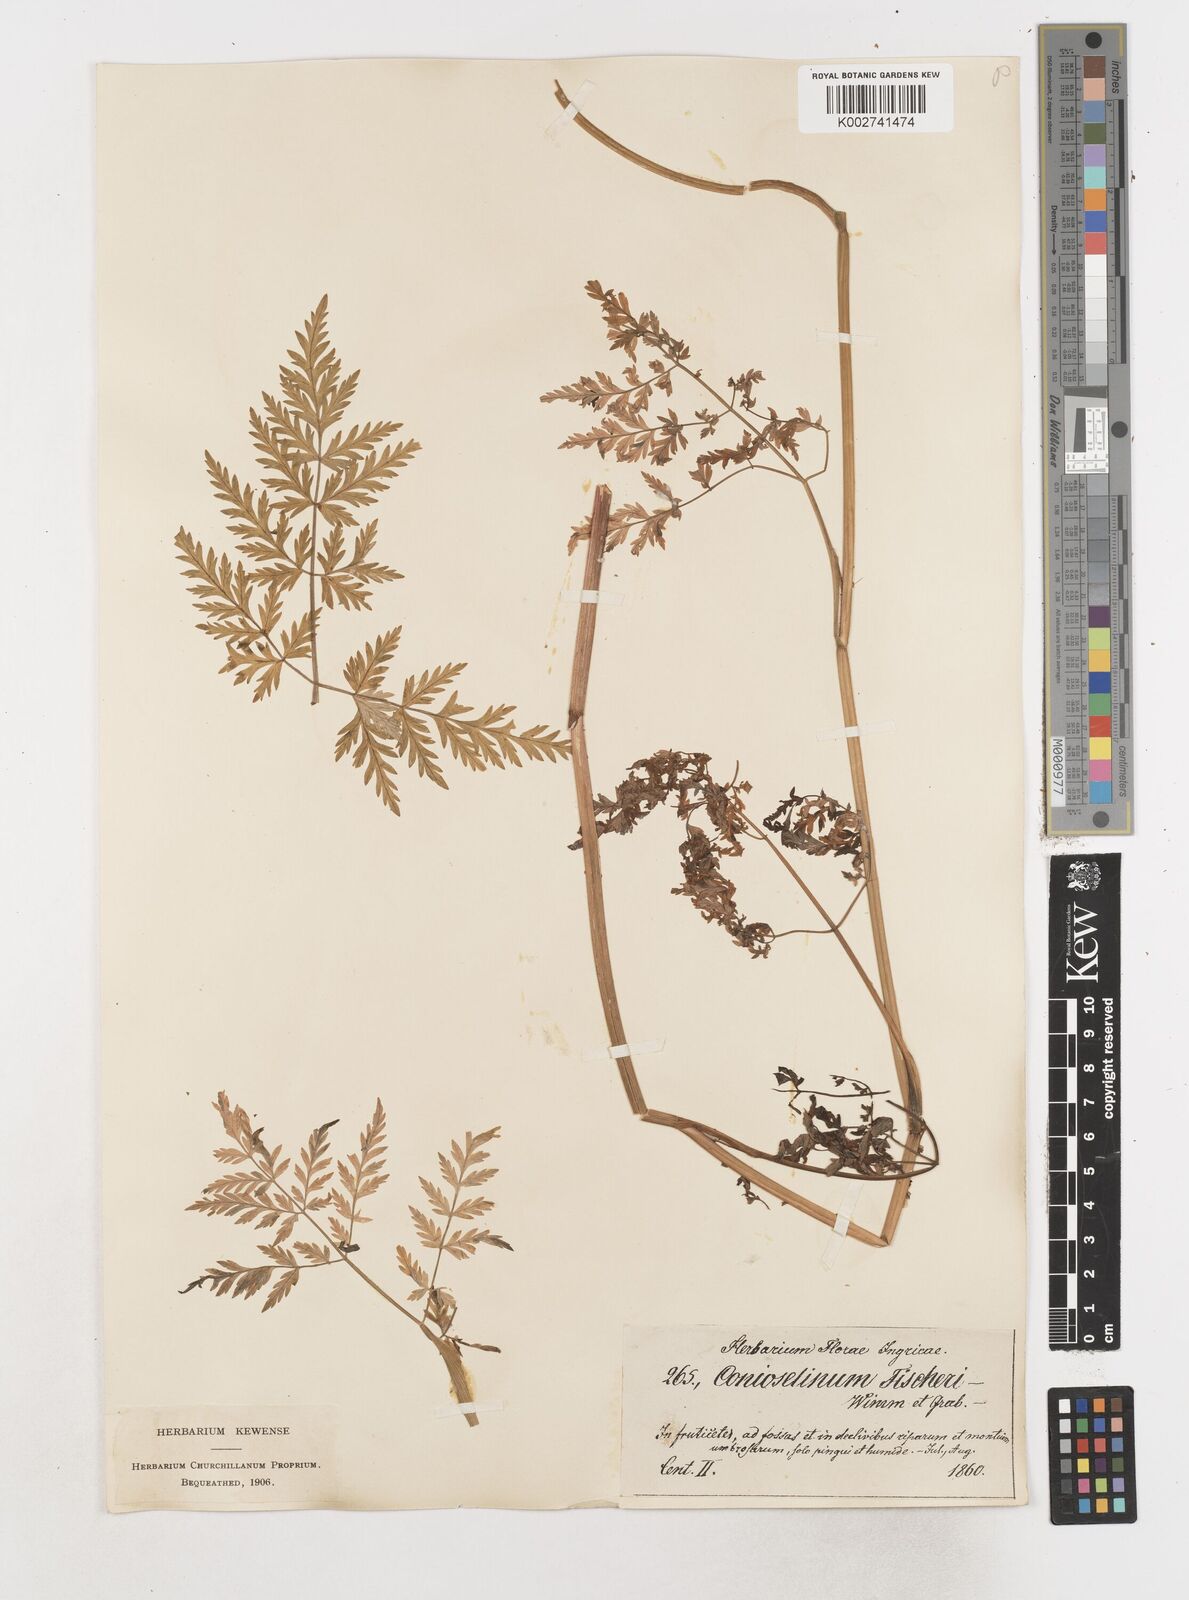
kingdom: Plantae
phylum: Tracheophyta
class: Magnoliopsida
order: Apiales
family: Apiaceae
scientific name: Apiaceae
